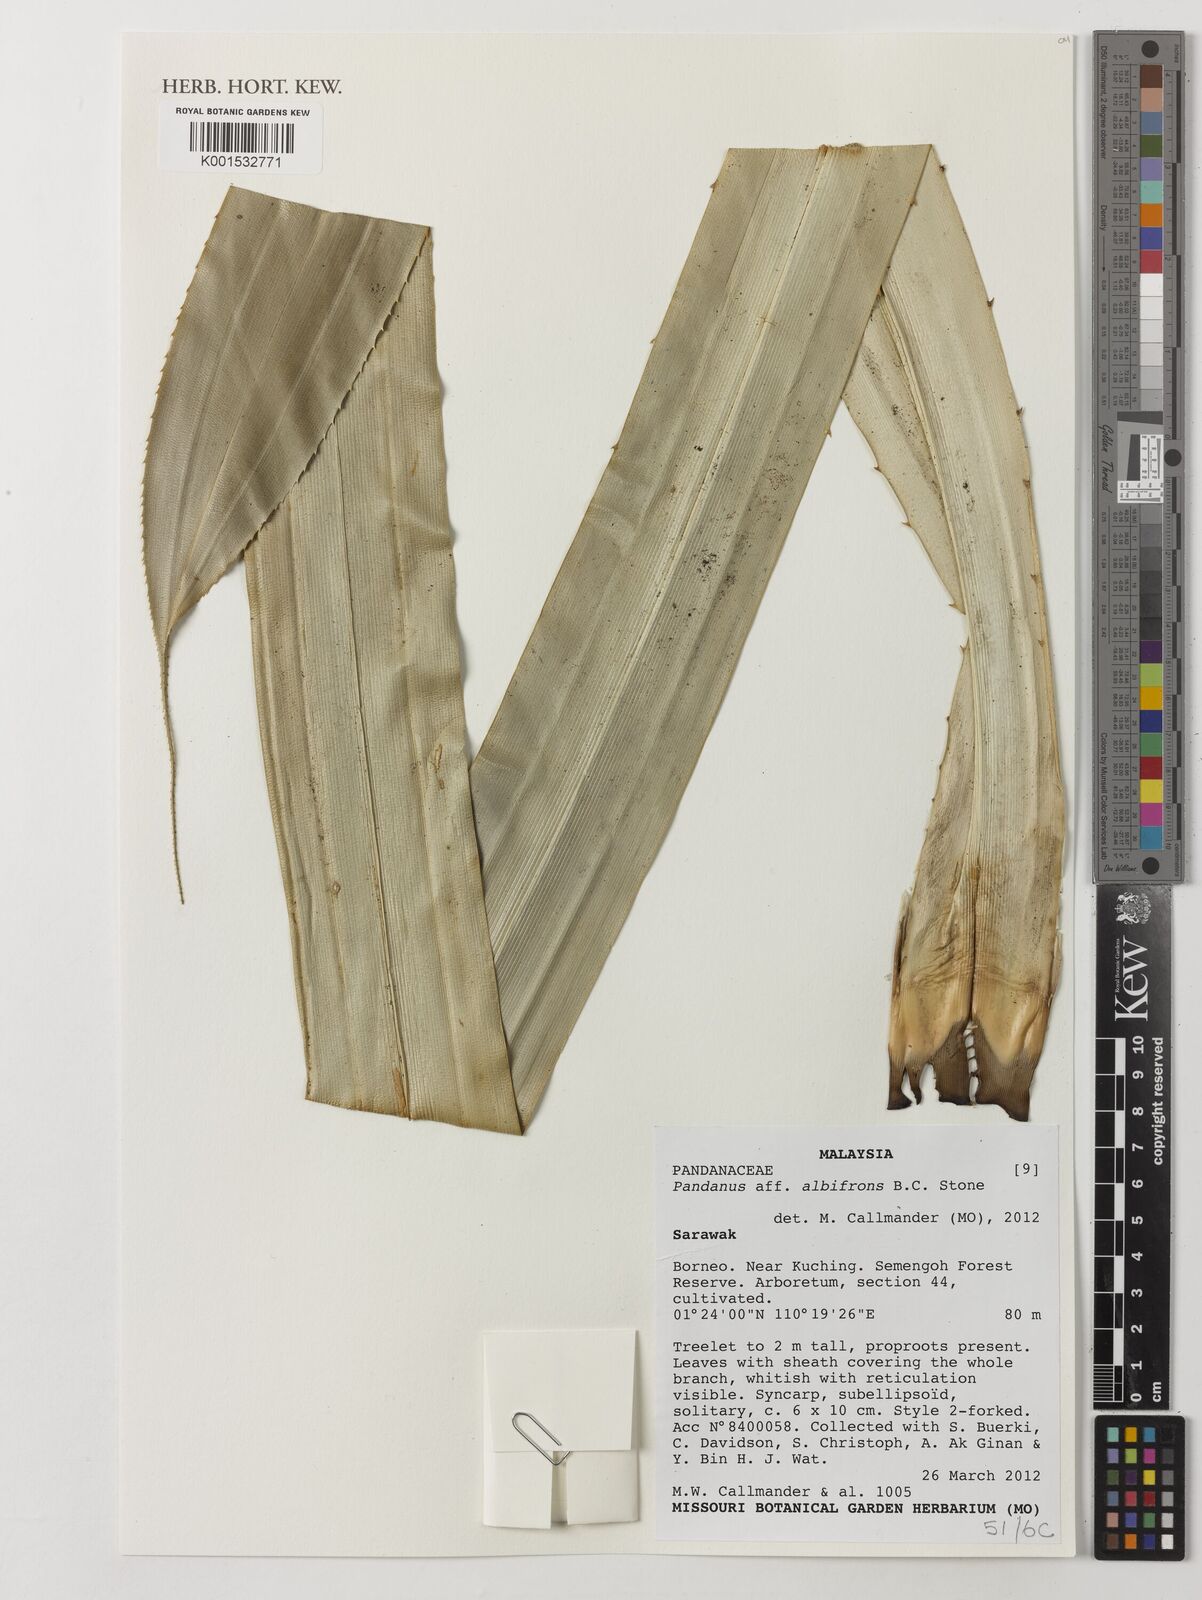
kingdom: Plantae
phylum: Tracheophyta
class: Liliopsida
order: Pandanales
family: Pandanaceae
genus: Pandanus
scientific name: Pandanus albifrons
